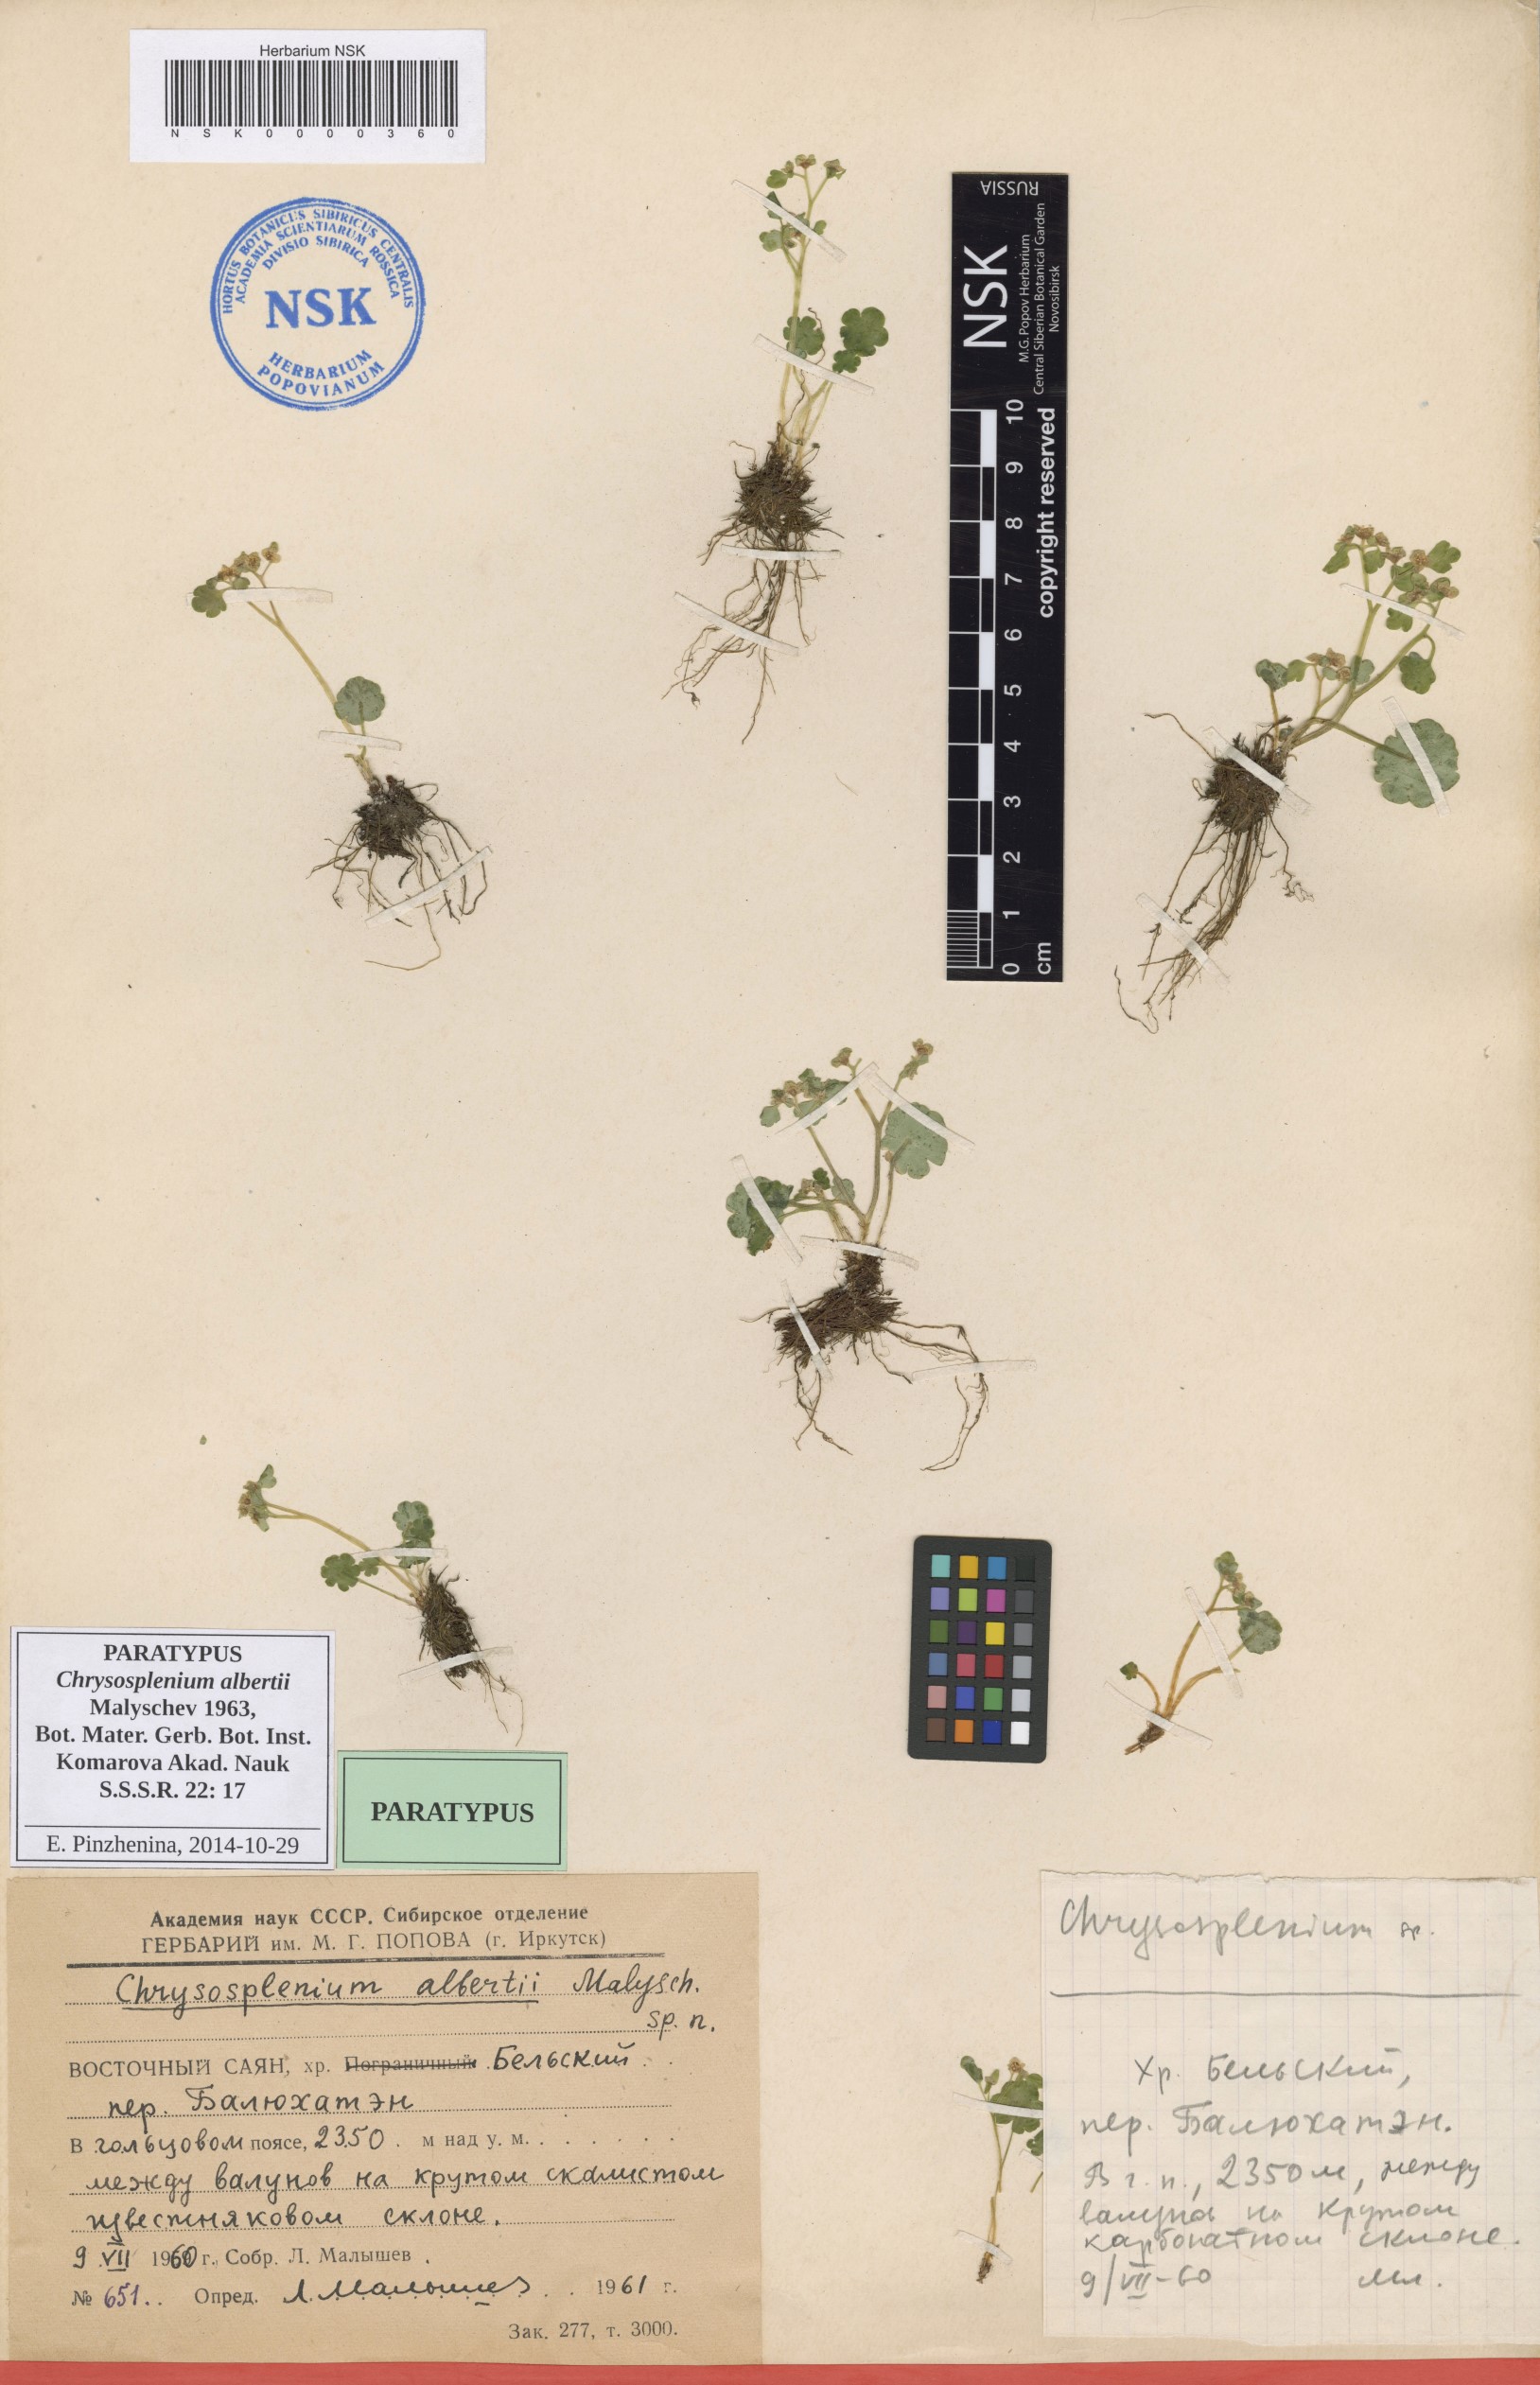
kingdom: Plantae
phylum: Tracheophyta
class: Magnoliopsida
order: Saxifragales
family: Saxifragaceae
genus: Chrysosplenium
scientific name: Chrysosplenium albertii
